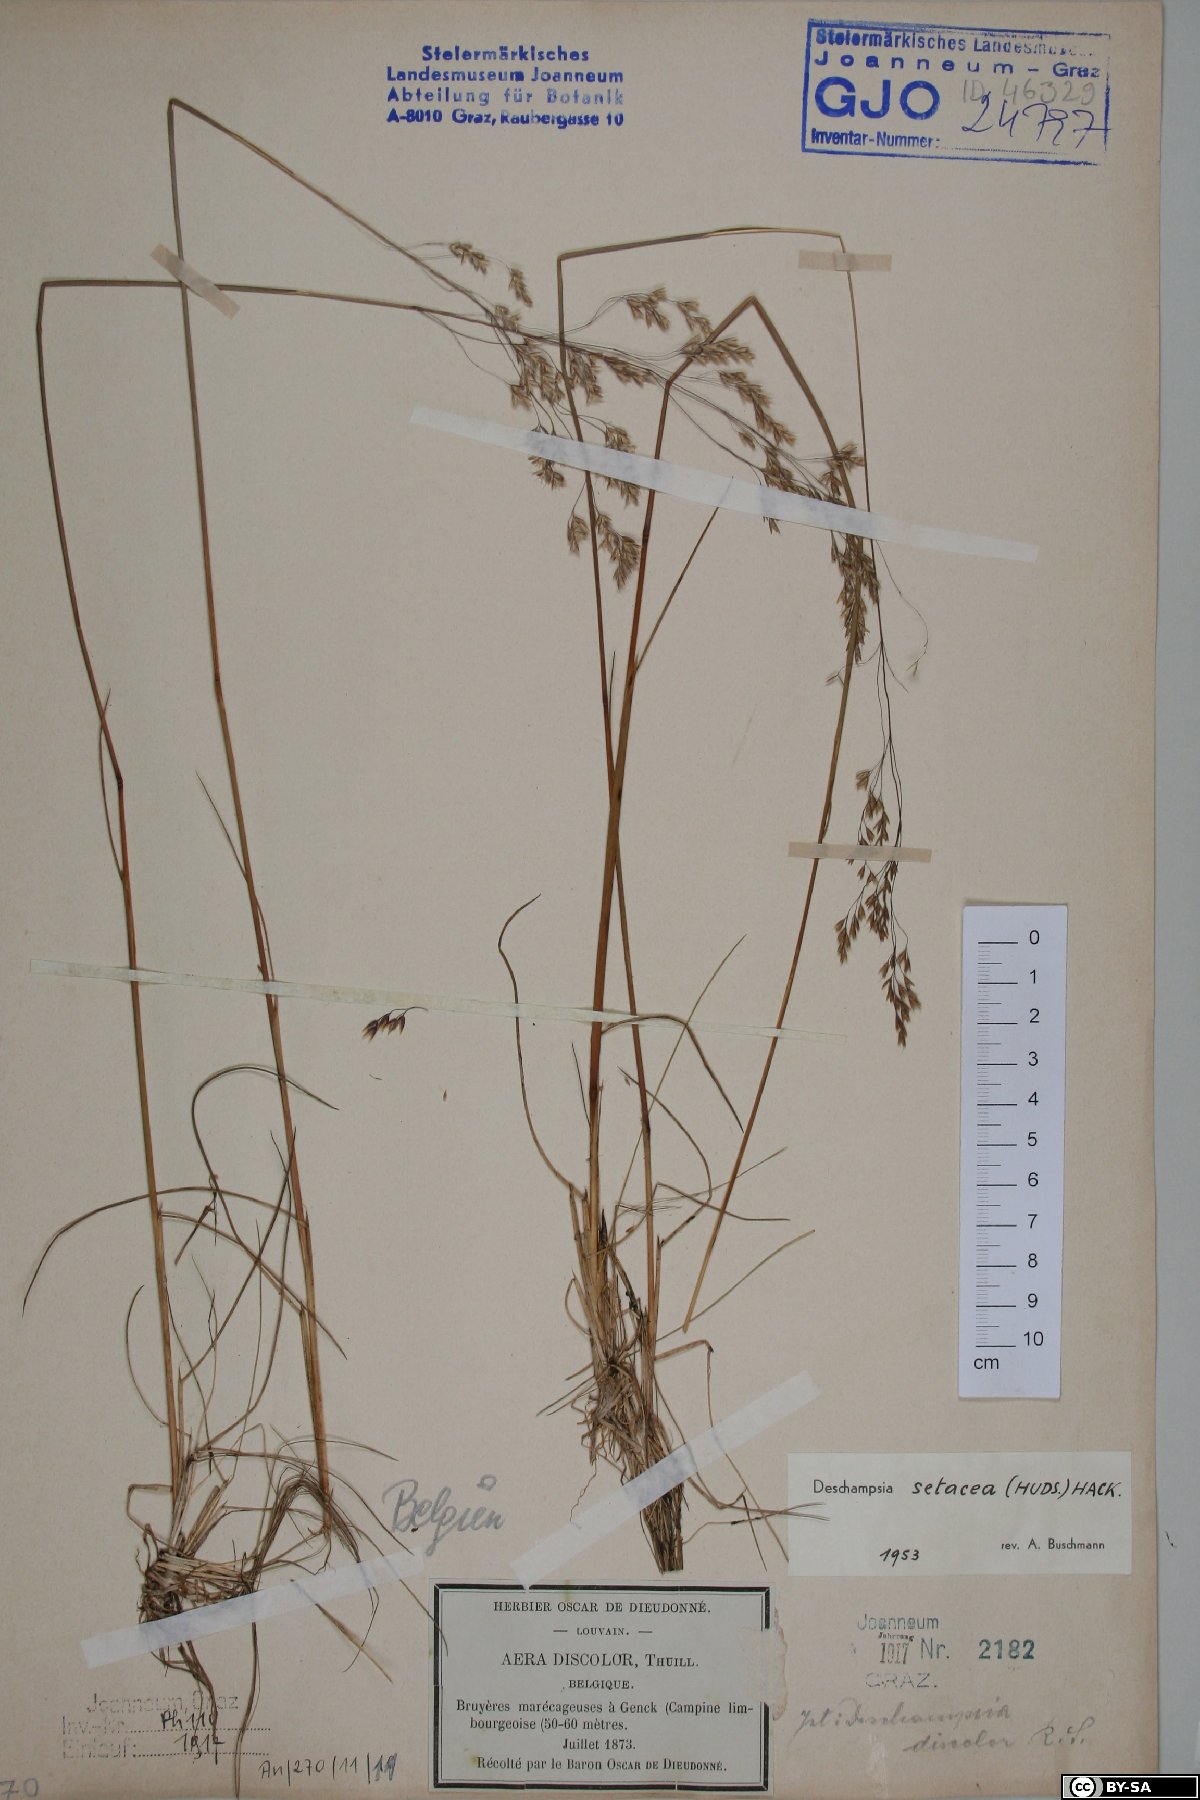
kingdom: Plantae
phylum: Tracheophyta
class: Liliopsida
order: Poales
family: Poaceae
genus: Deschampsia
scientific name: Deschampsia setacea
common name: Bog hair-grass
